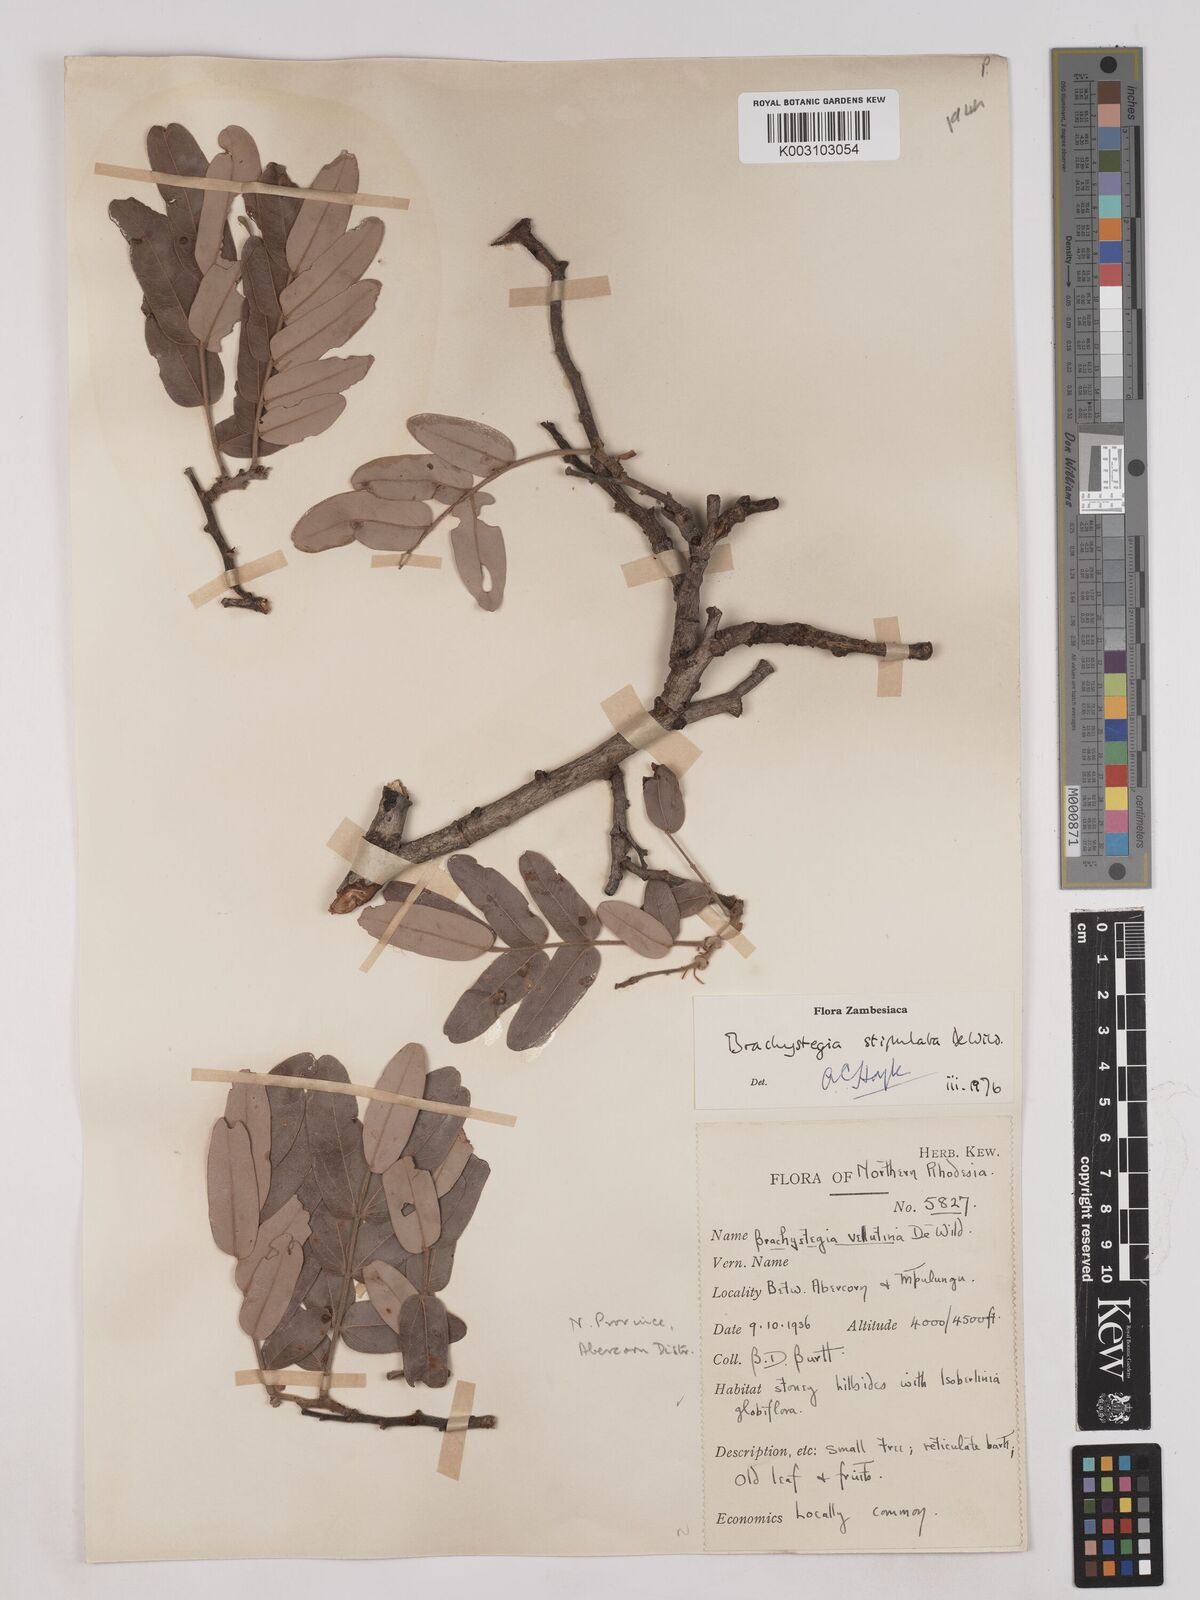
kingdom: Plantae
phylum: Tracheophyta
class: Magnoliopsida
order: Fabales
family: Fabaceae
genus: Brachystegia
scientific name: Brachystegia stipulata
